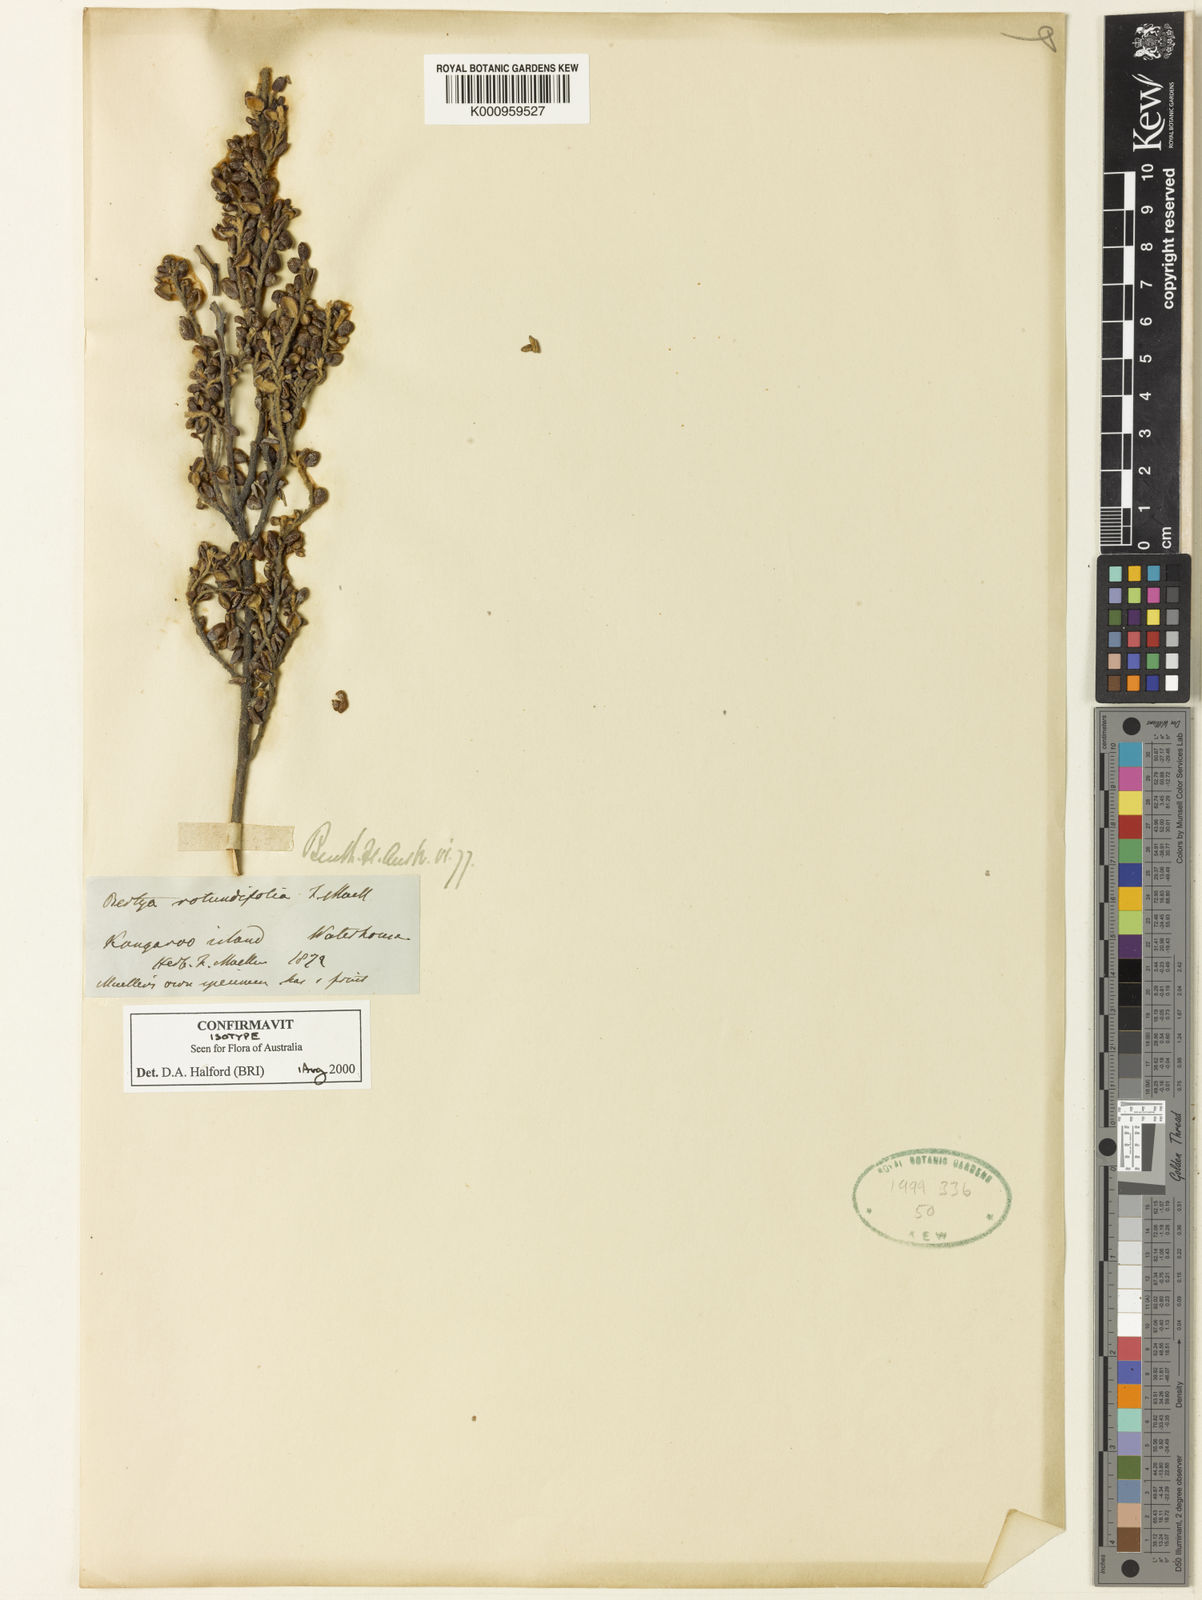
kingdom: Plantae
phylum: Tracheophyta
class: Magnoliopsida
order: Malpighiales
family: Euphorbiaceae
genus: Bertya
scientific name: Bertya rotundifolia
